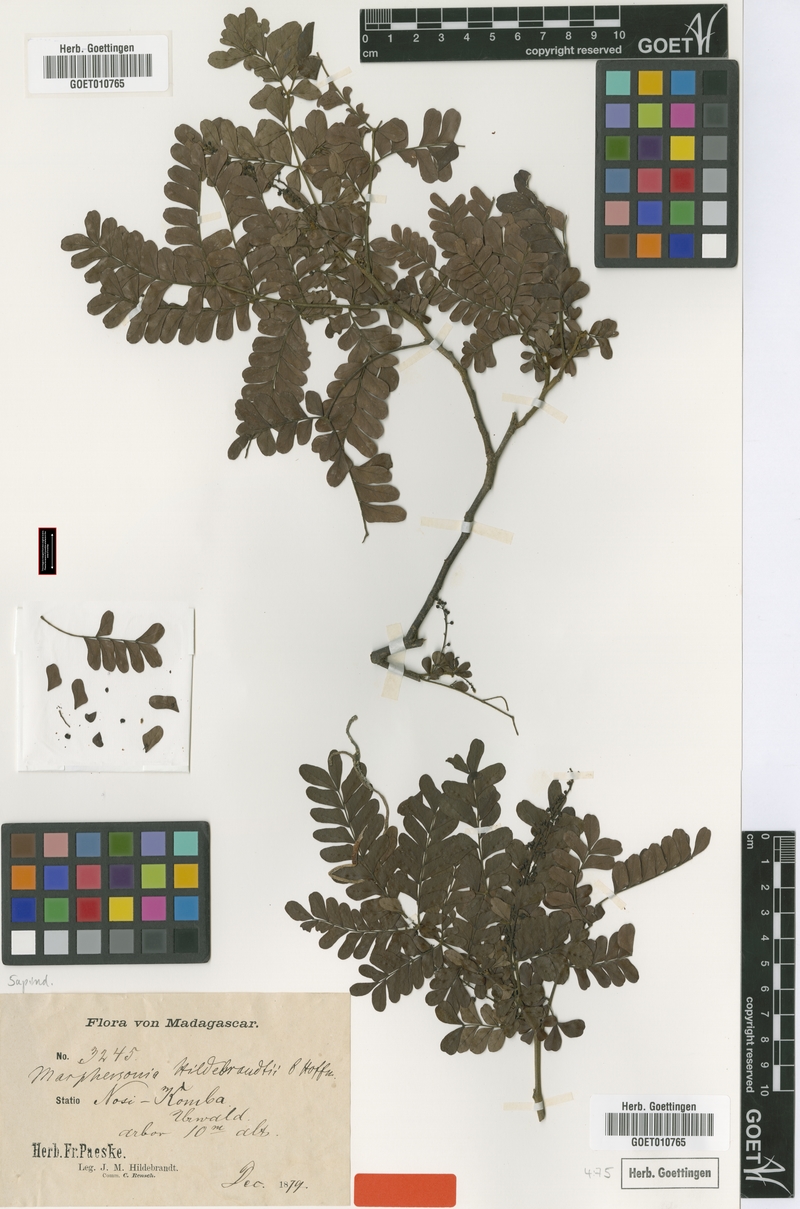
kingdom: Plantae
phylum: Tracheophyta
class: Magnoliopsida
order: Sapindales
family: Sapindaceae
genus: Macphersonia
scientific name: Macphersonia gracilis
